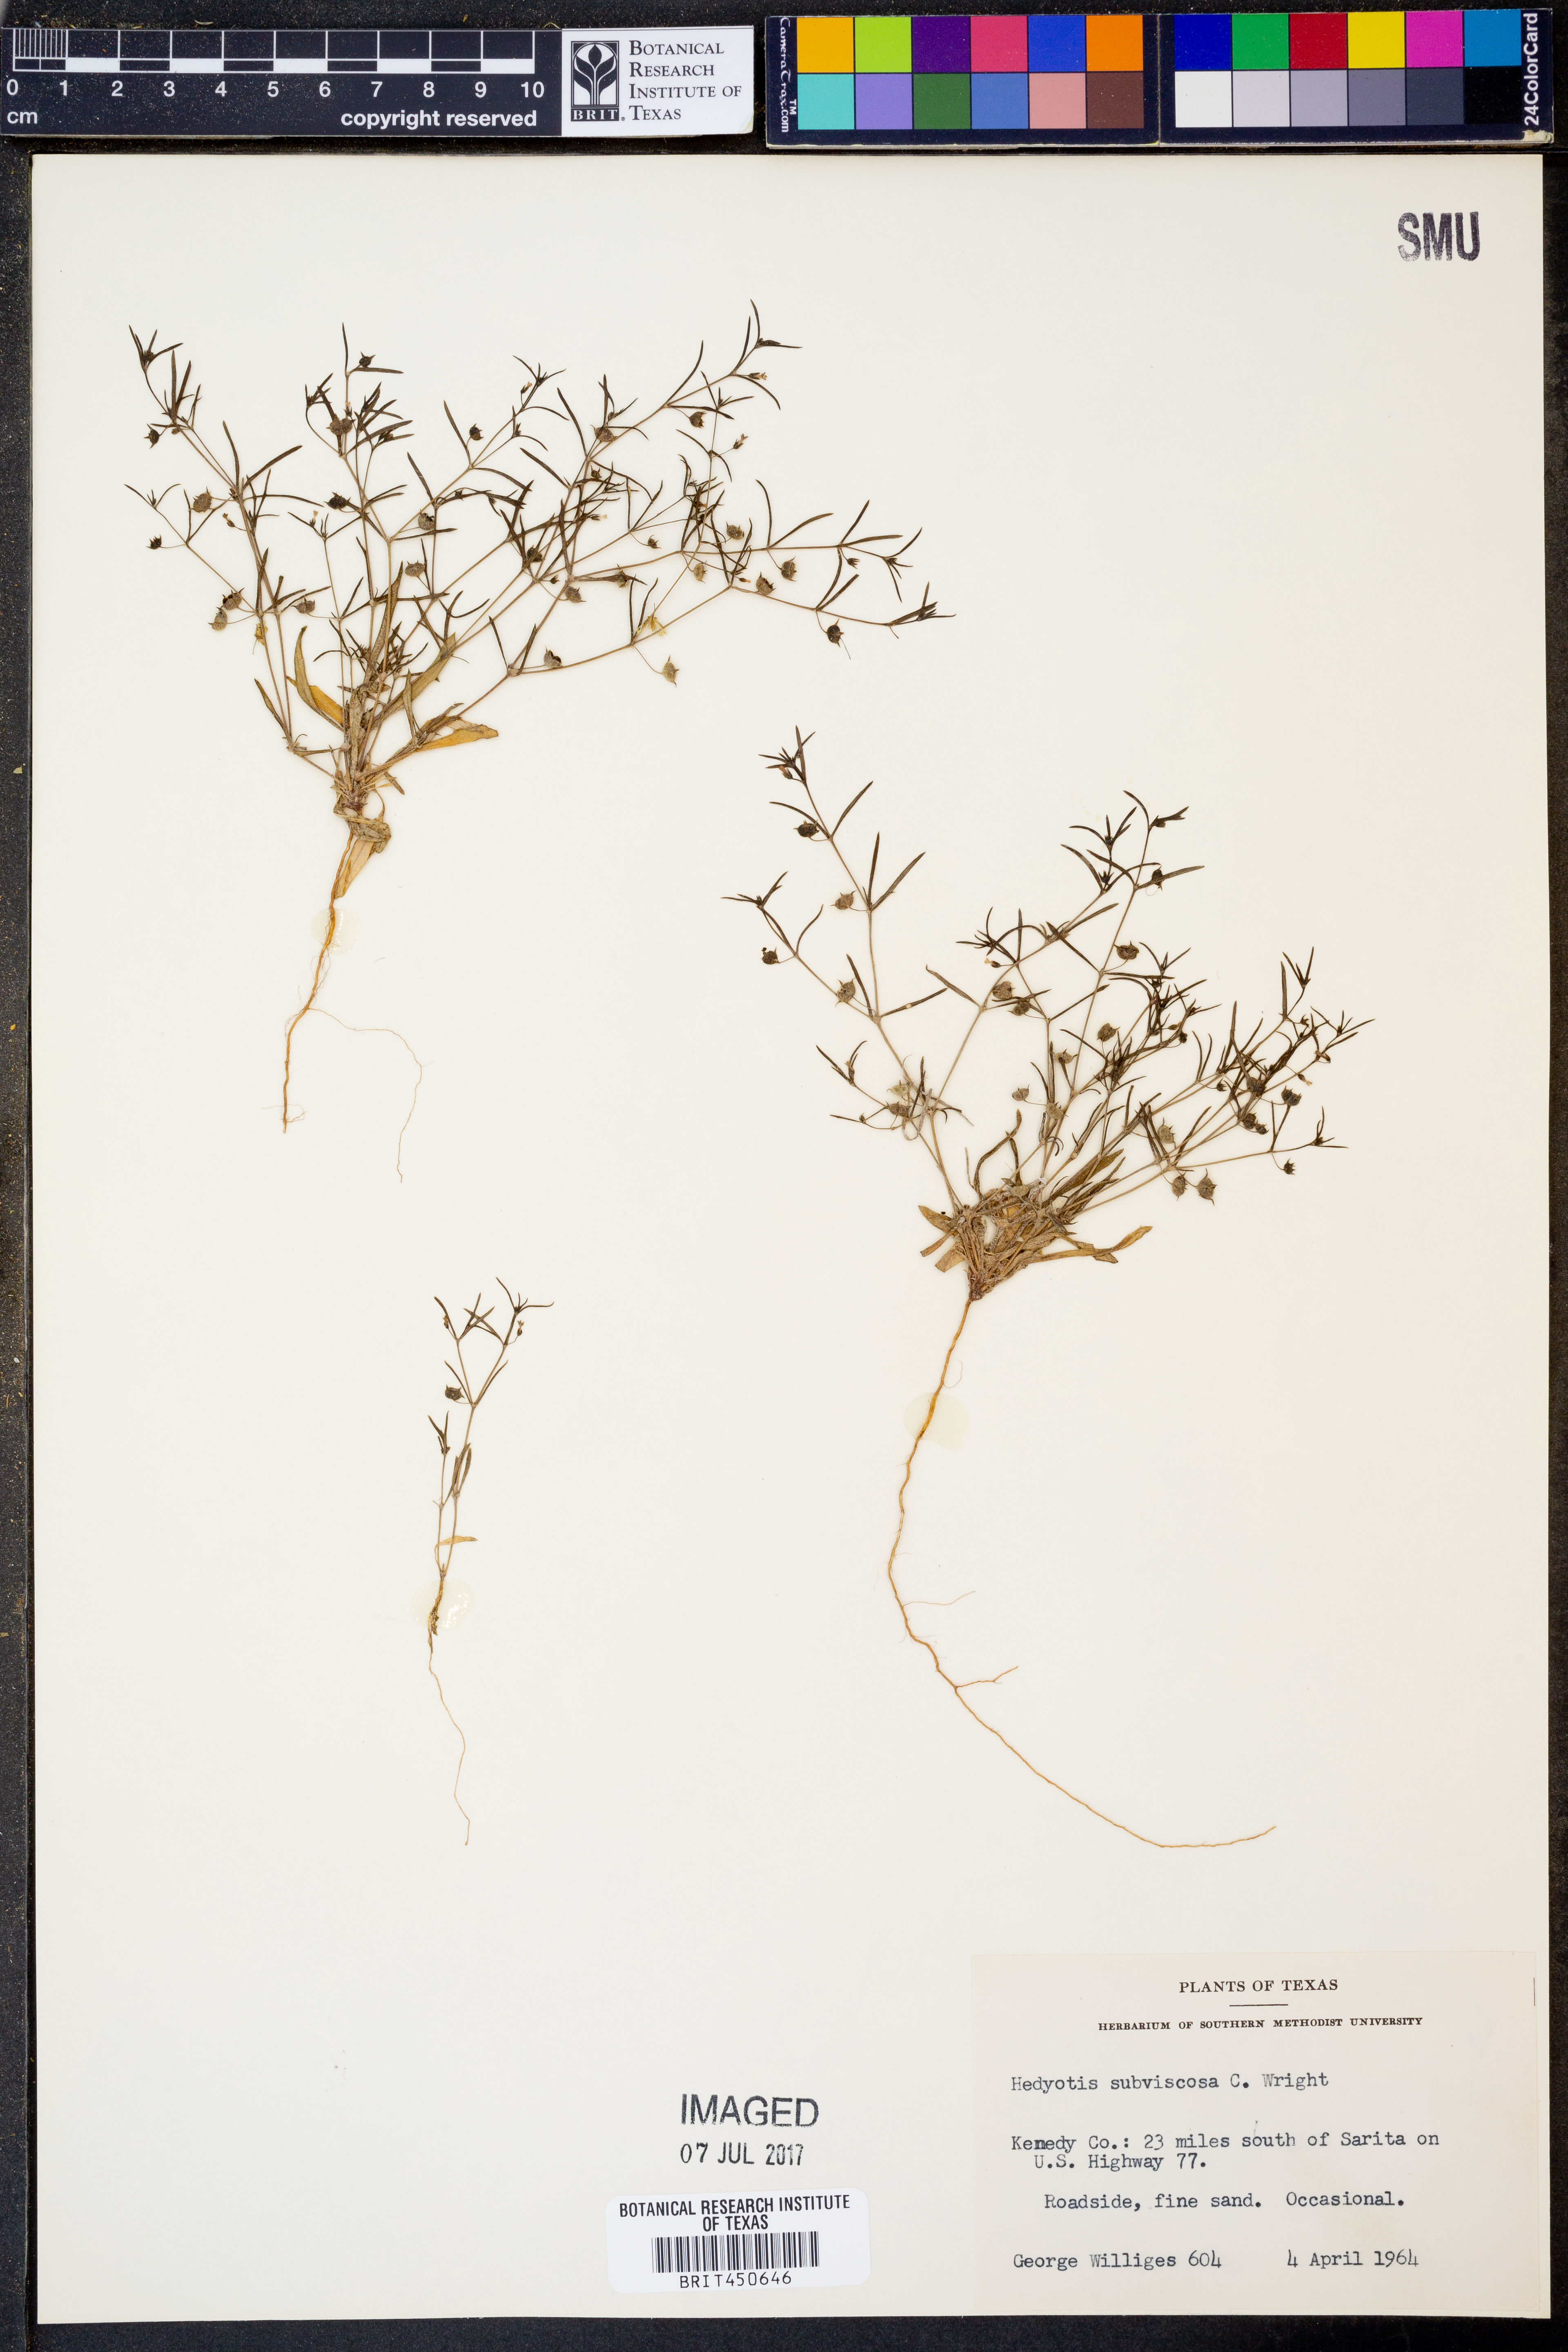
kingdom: Plantae
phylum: Tracheophyta
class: Magnoliopsida
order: Gentianales
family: Rubiaceae
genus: Houstonia
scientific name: Houstonia subviscosa
